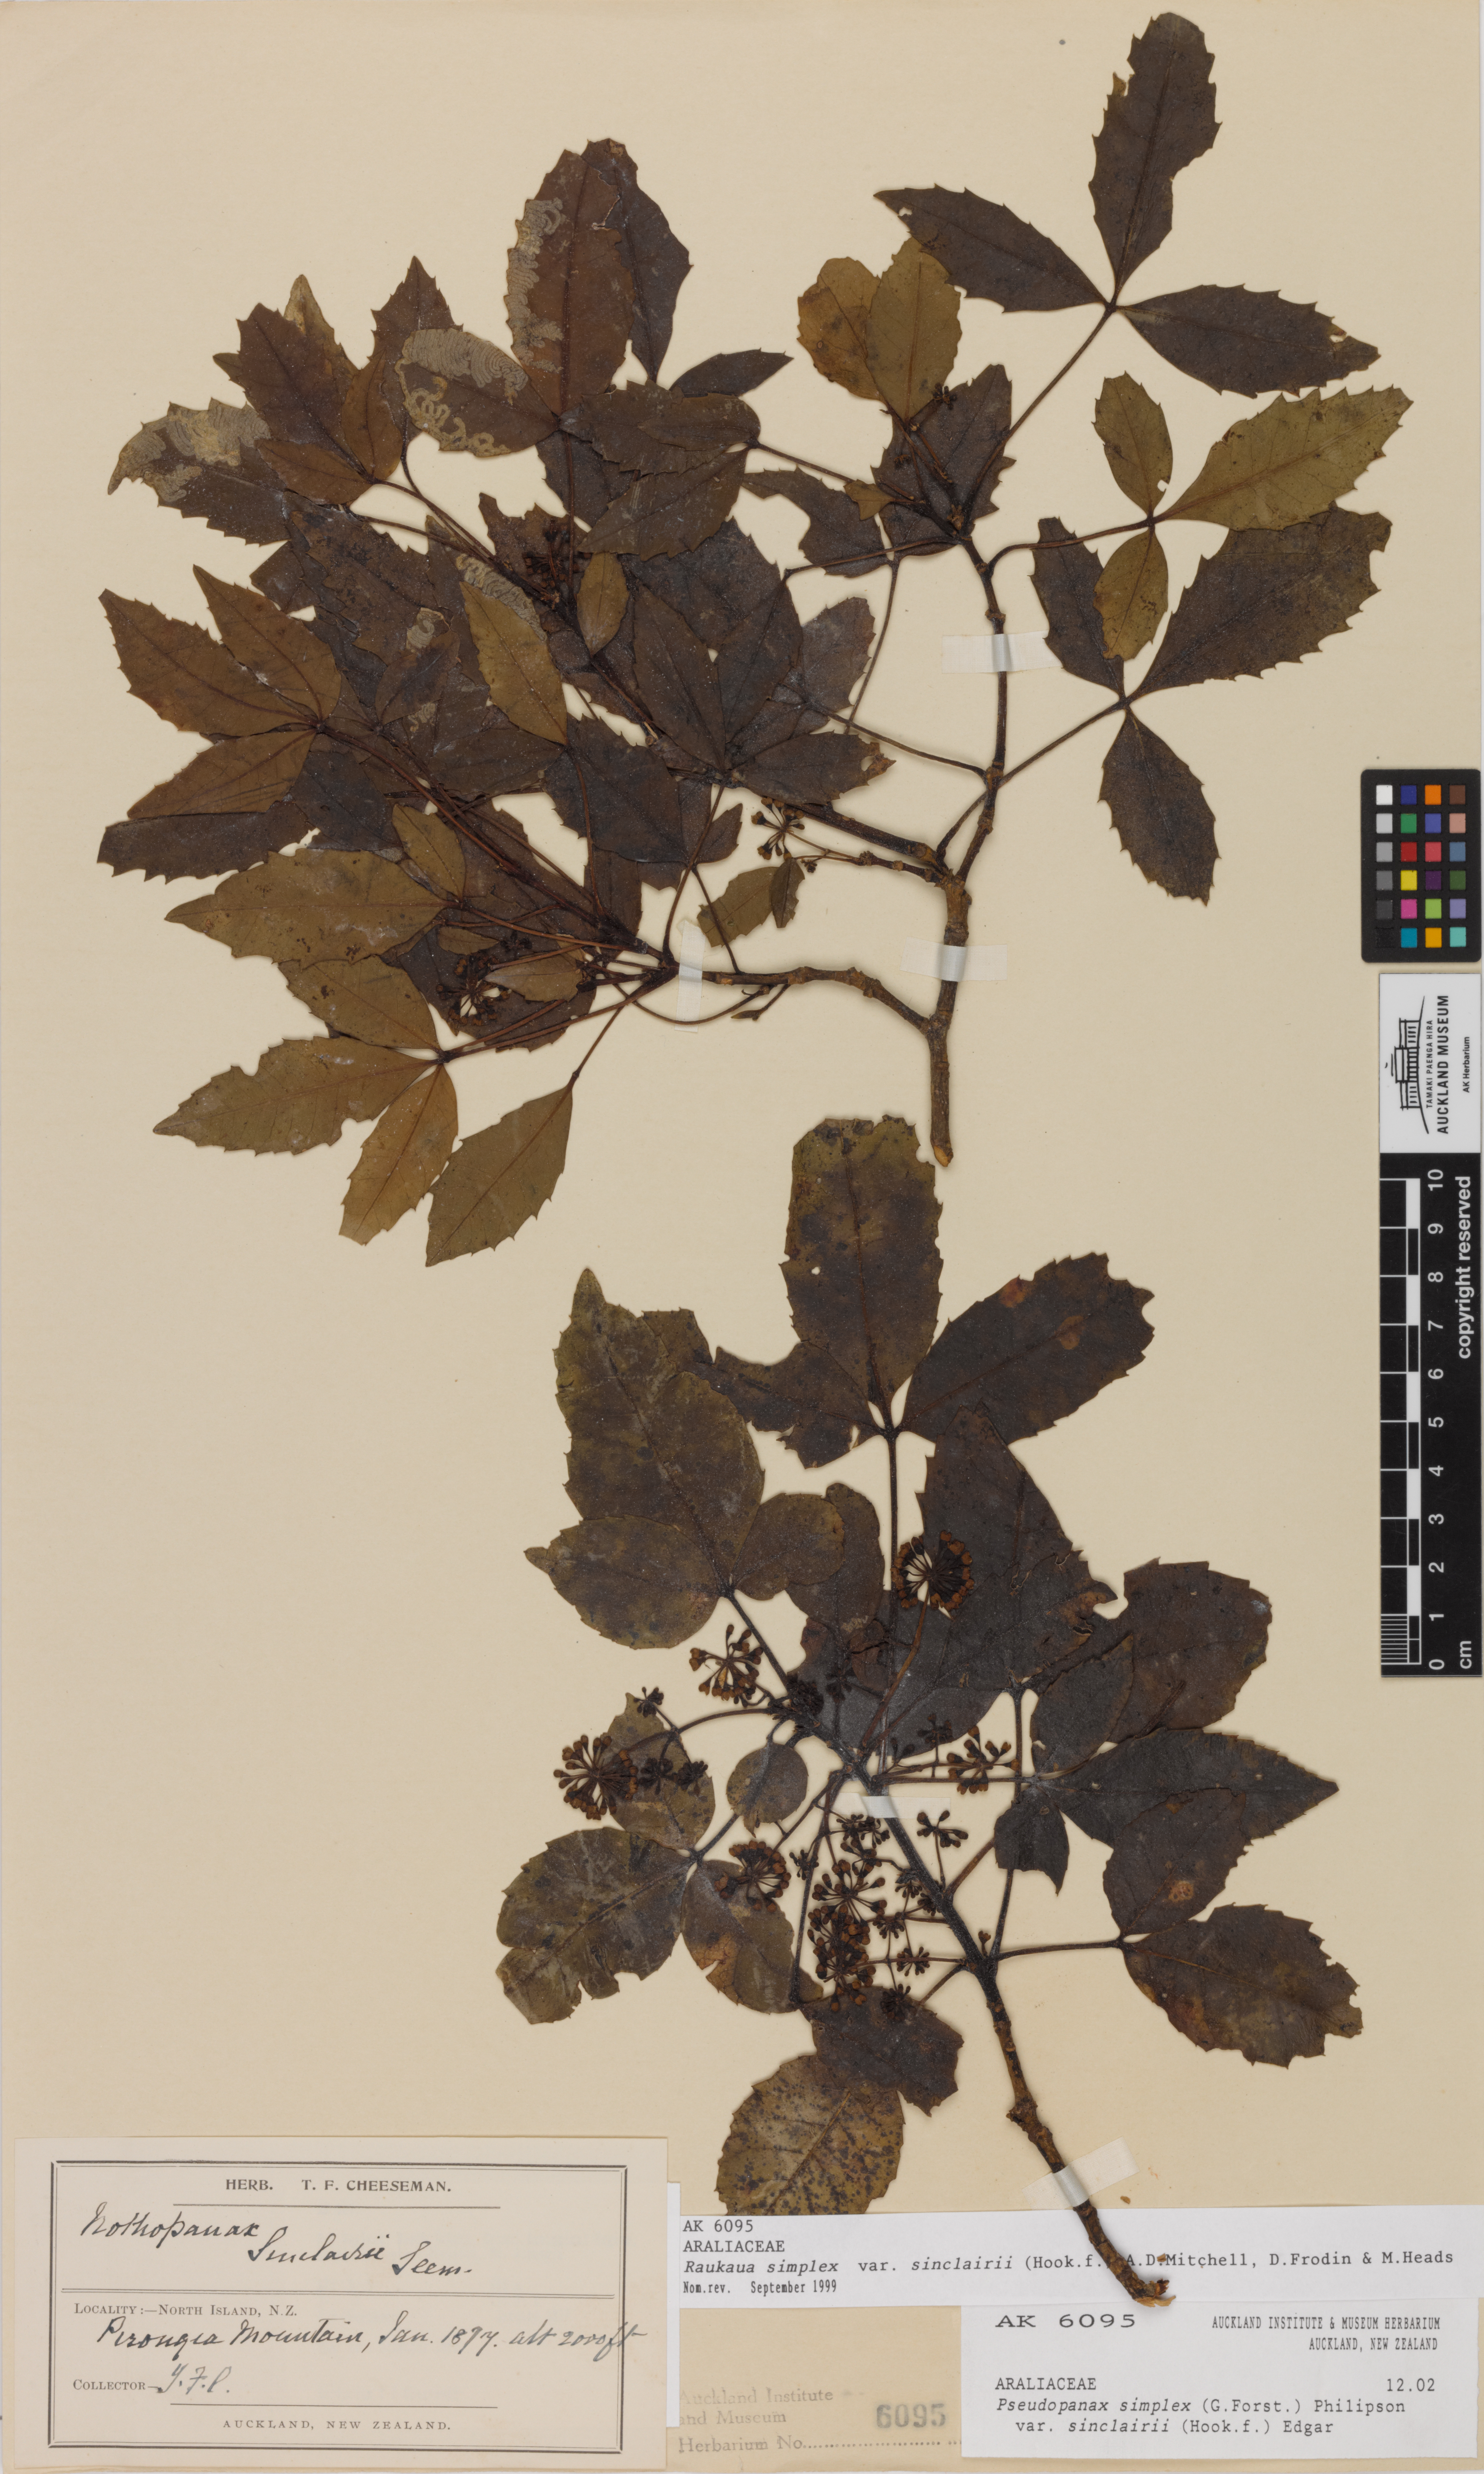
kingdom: Plantae
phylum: Tracheophyta
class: Magnoliopsida
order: Apiales
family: Araliaceae
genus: Raukaua
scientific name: Raukaua simplex
